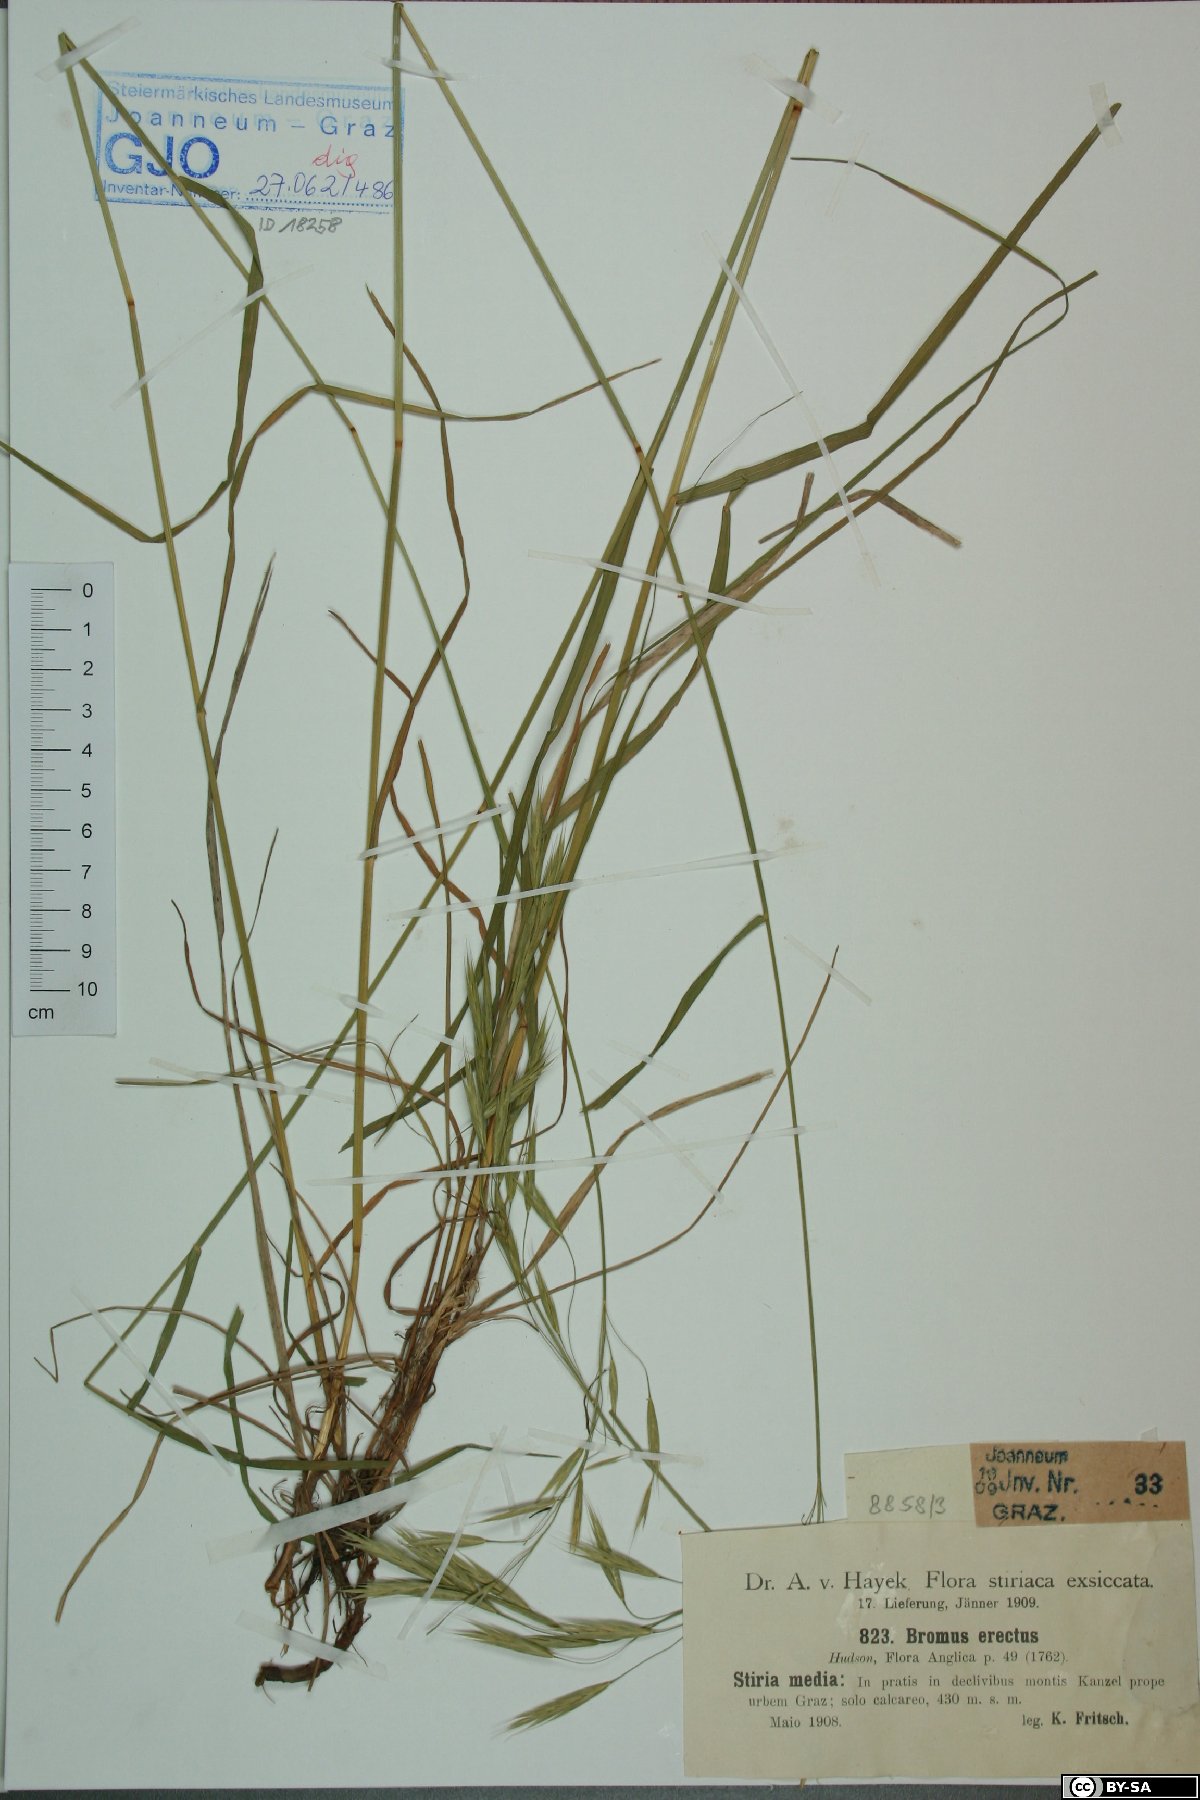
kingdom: Plantae
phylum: Tracheophyta
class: Liliopsida
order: Poales
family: Poaceae
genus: Bromus
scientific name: Bromus erectus
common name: Erect brome
